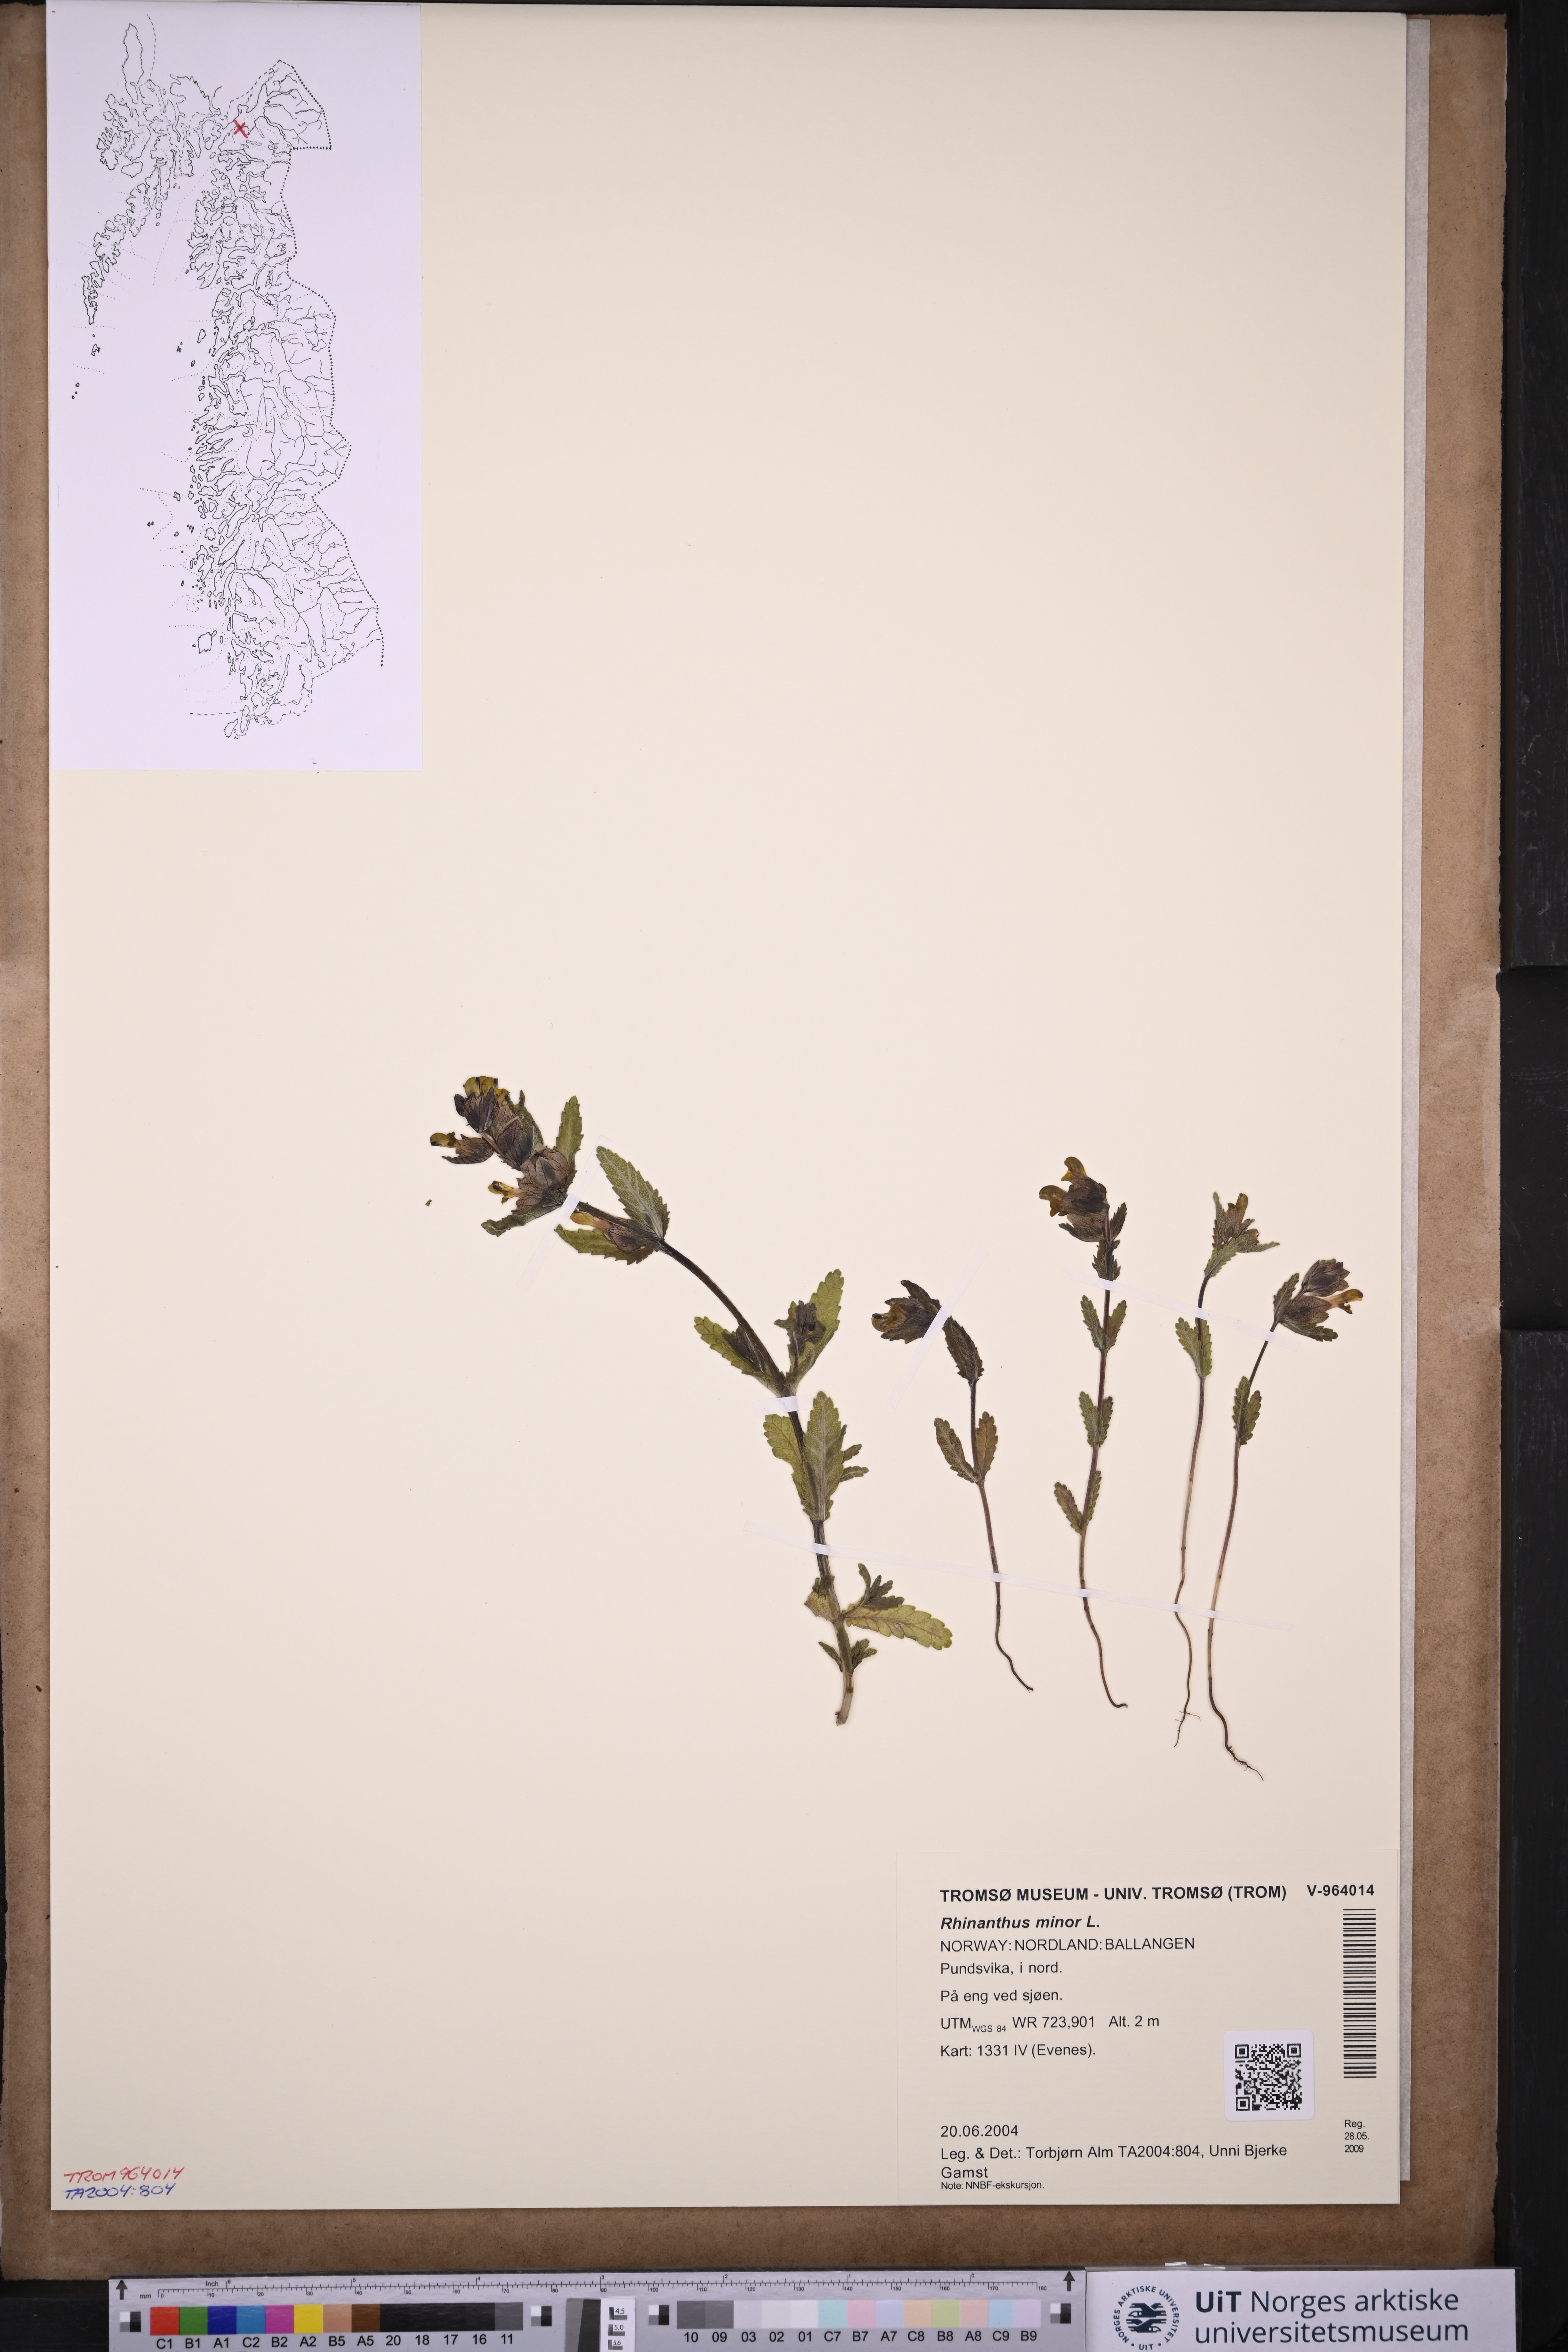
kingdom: Plantae
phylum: Tracheophyta
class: Magnoliopsida
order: Lamiales
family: Orobanchaceae
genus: Rhinanthus
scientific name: Rhinanthus minor
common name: Yellow-rattle
